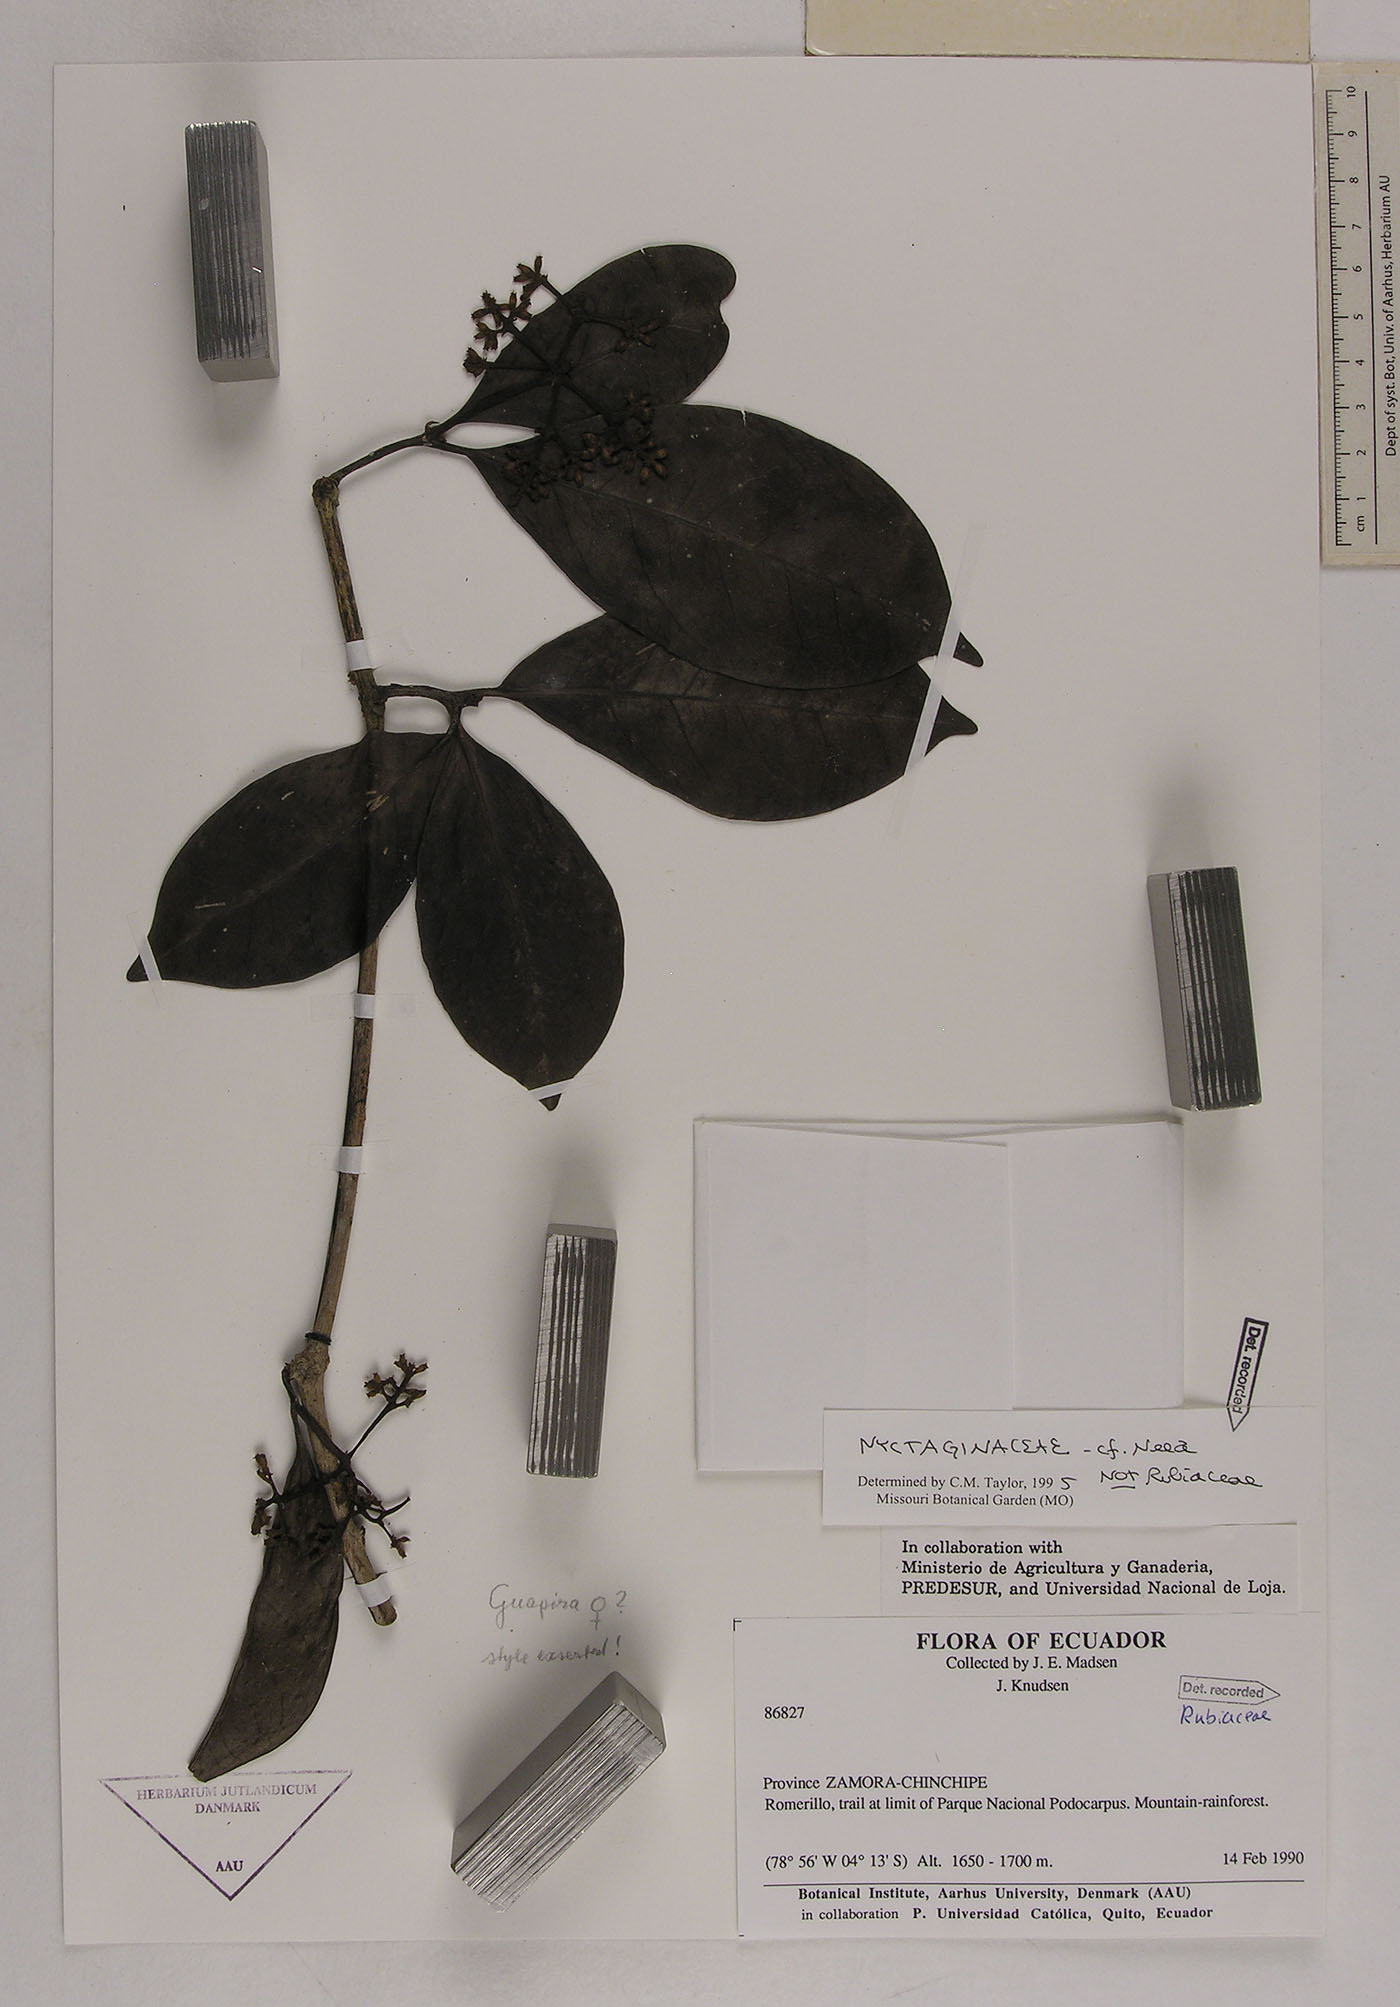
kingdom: Plantae
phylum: Tracheophyta
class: Magnoliopsida
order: Caryophyllales
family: Nyctaginaceae
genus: Neea
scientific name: Neea
